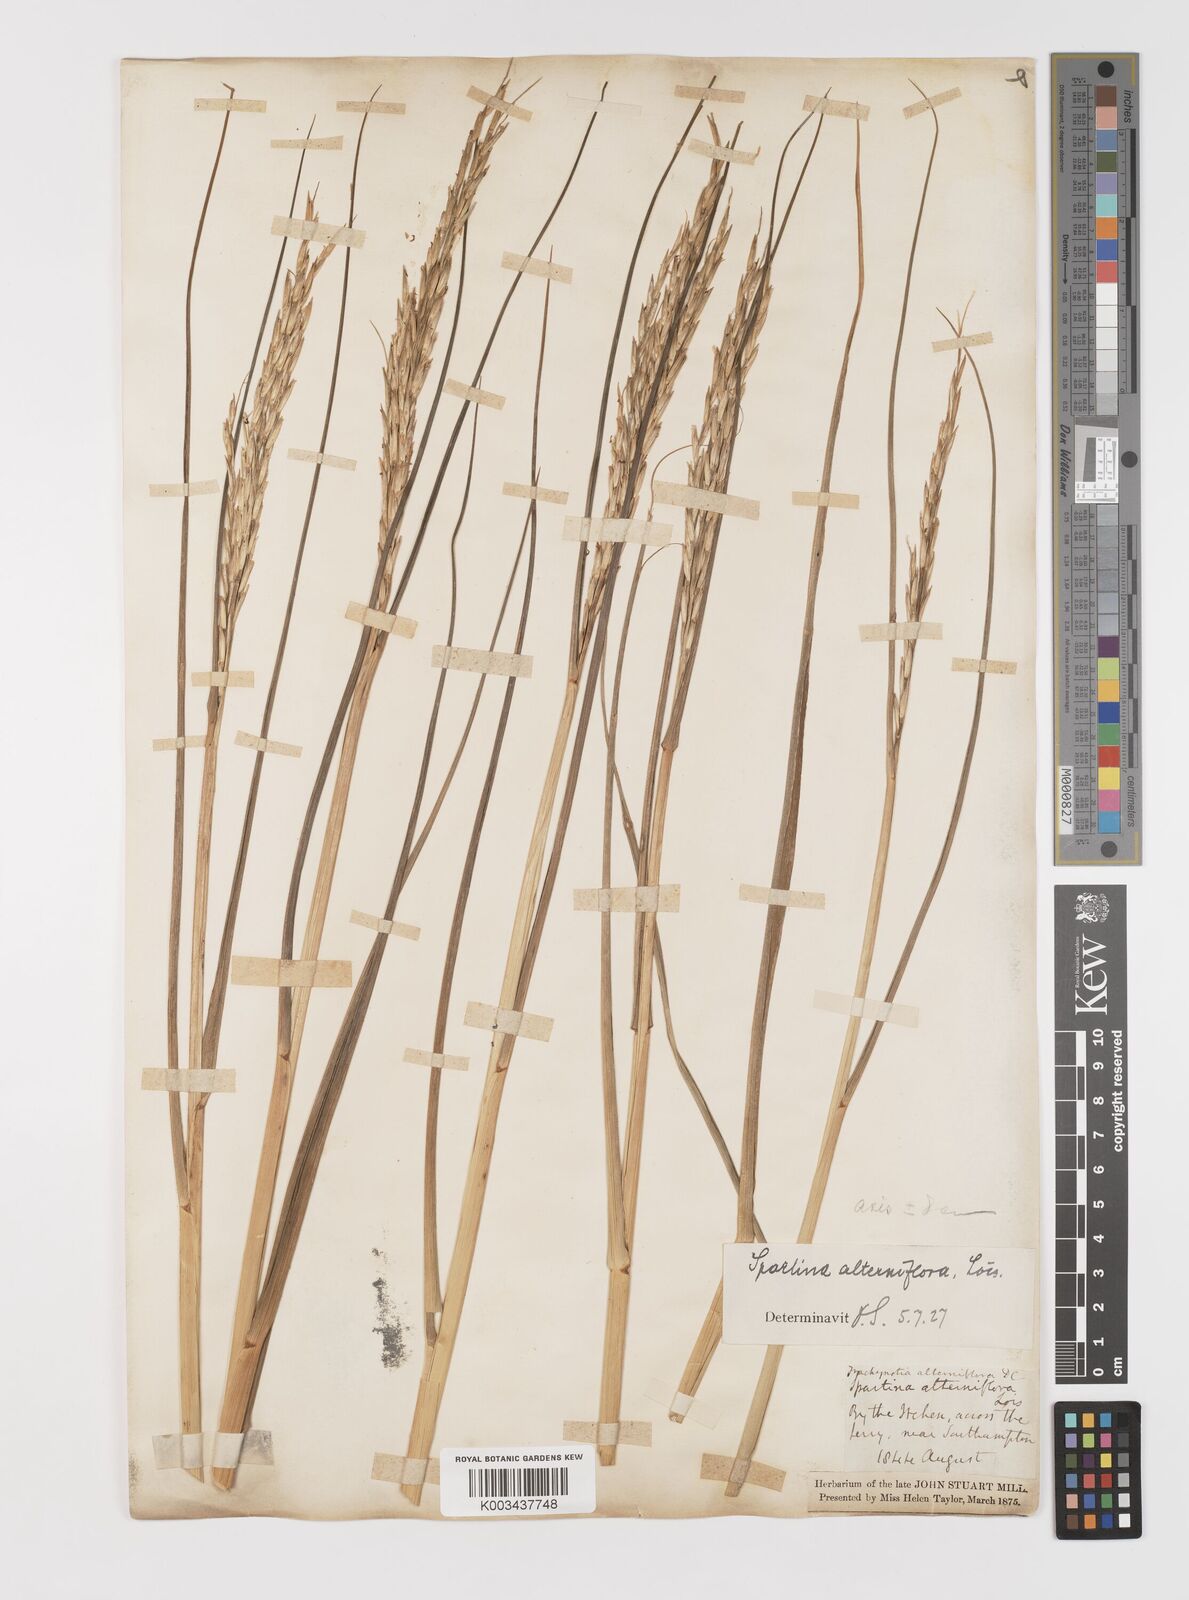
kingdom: Plantae
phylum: Tracheophyta
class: Liliopsida
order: Poales
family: Poaceae
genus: Sporobolus
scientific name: Sporobolus alterniflorus
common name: Atlantic cordgrass
